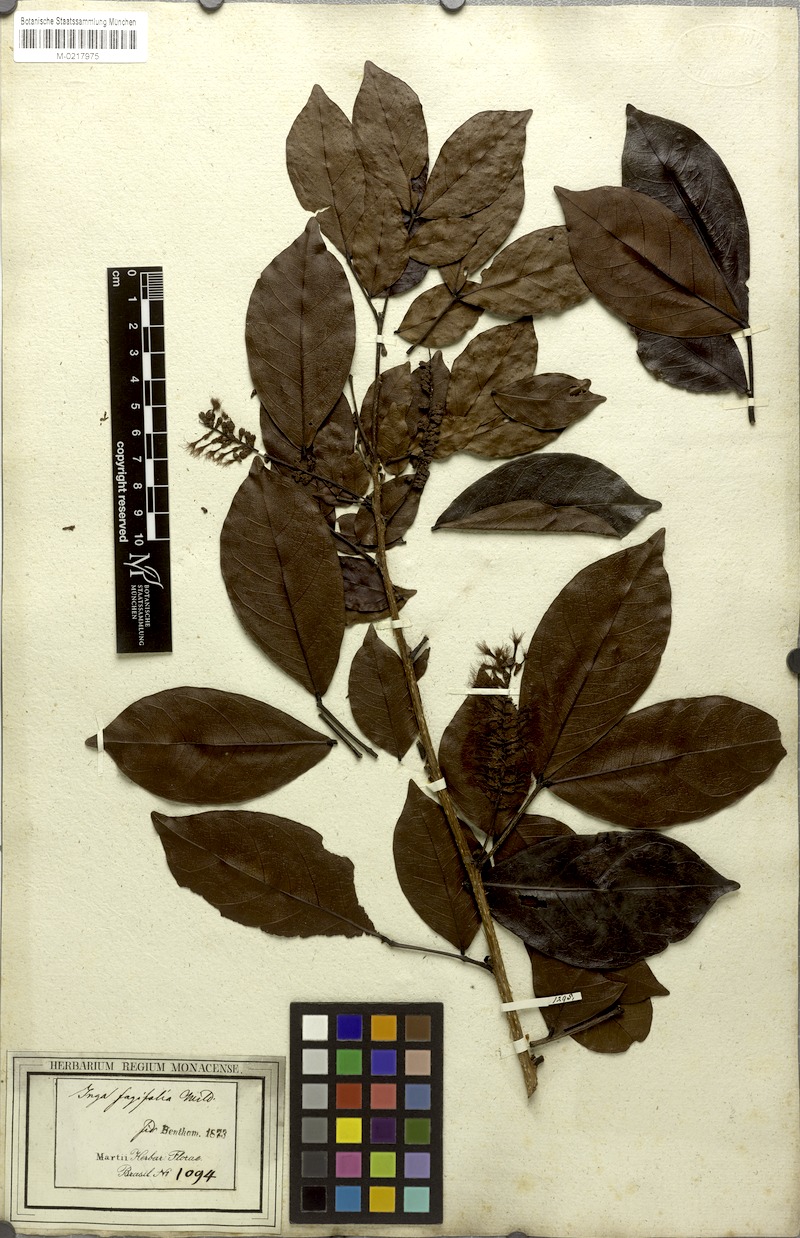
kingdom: Plantae
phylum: Tracheophyta
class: Magnoliopsida
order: Fabales
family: Fabaceae
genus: Inga
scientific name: Inga laurina
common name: Red wood
